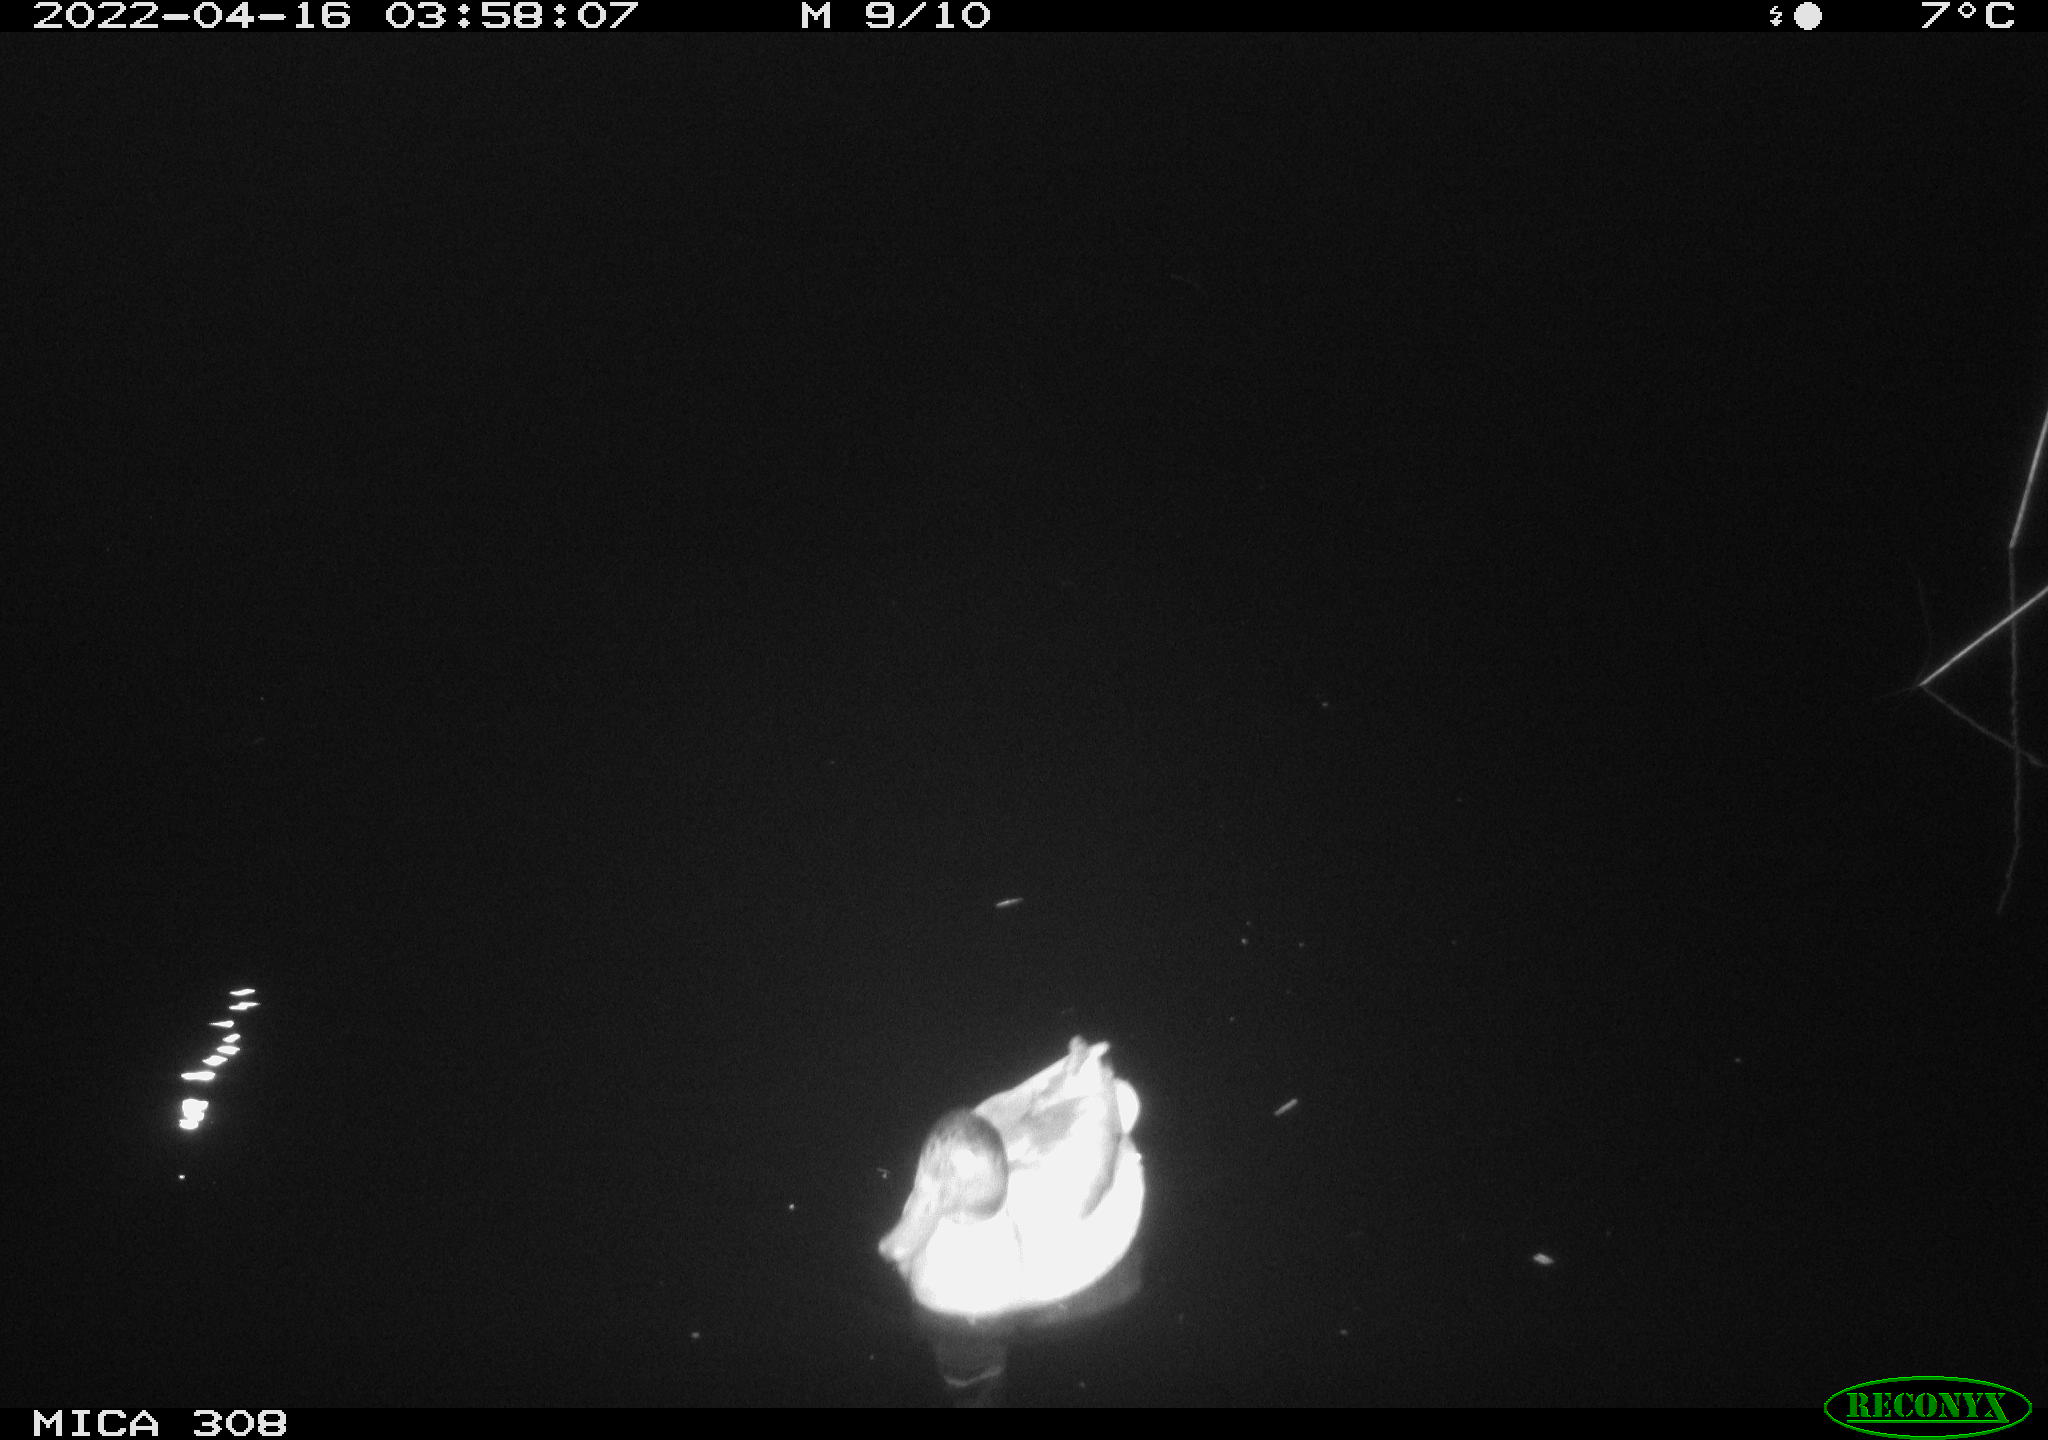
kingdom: Animalia
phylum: Chordata
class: Aves
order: Anseriformes
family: Anatidae
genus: Anas
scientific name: Anas platyrhynchos
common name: Mallard
